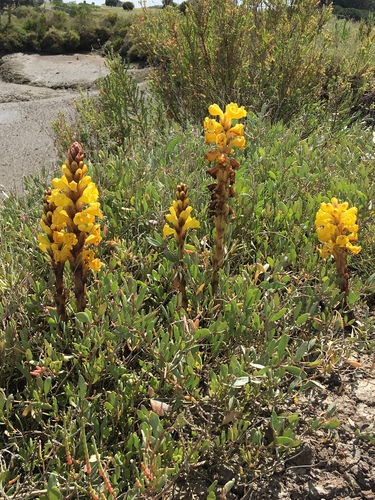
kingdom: Plantae
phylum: Tracheophyta
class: Magnoliopsida
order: Lamiales
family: Orobanchaceae
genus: Cistanche
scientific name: Cistanche phelypaea
